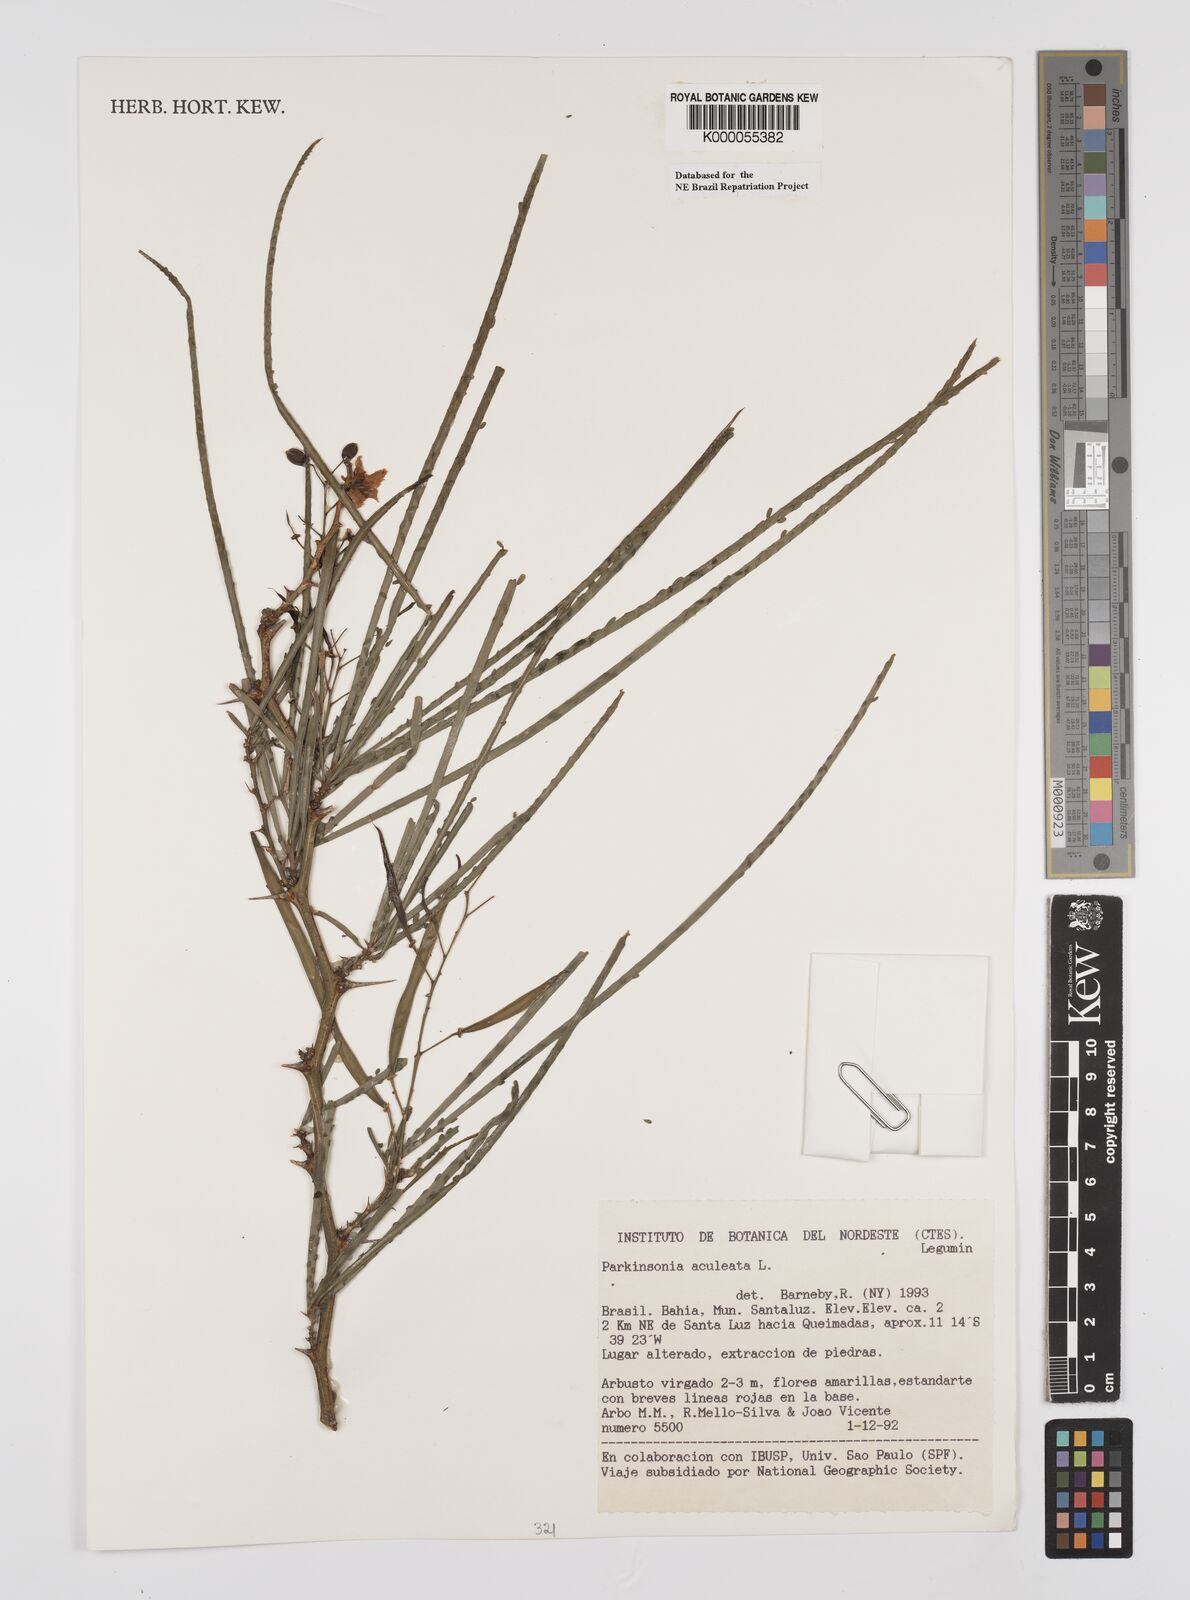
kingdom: Plantae
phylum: Tracheophyta
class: Magnoliopsida
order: Fabales
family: Fabaceae
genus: Parkinsonia
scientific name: Parkinsonia aculeata
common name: Jerusalem thorn
